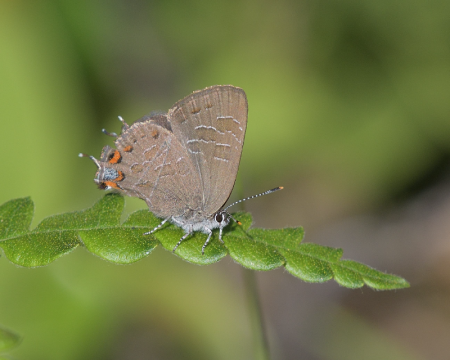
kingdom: Animalia
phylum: Arthropoda
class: Insecta
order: Lepidoptera
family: Lycaenidae
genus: Satyrium
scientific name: Satyrium liparops
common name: Striped Hairstreak
